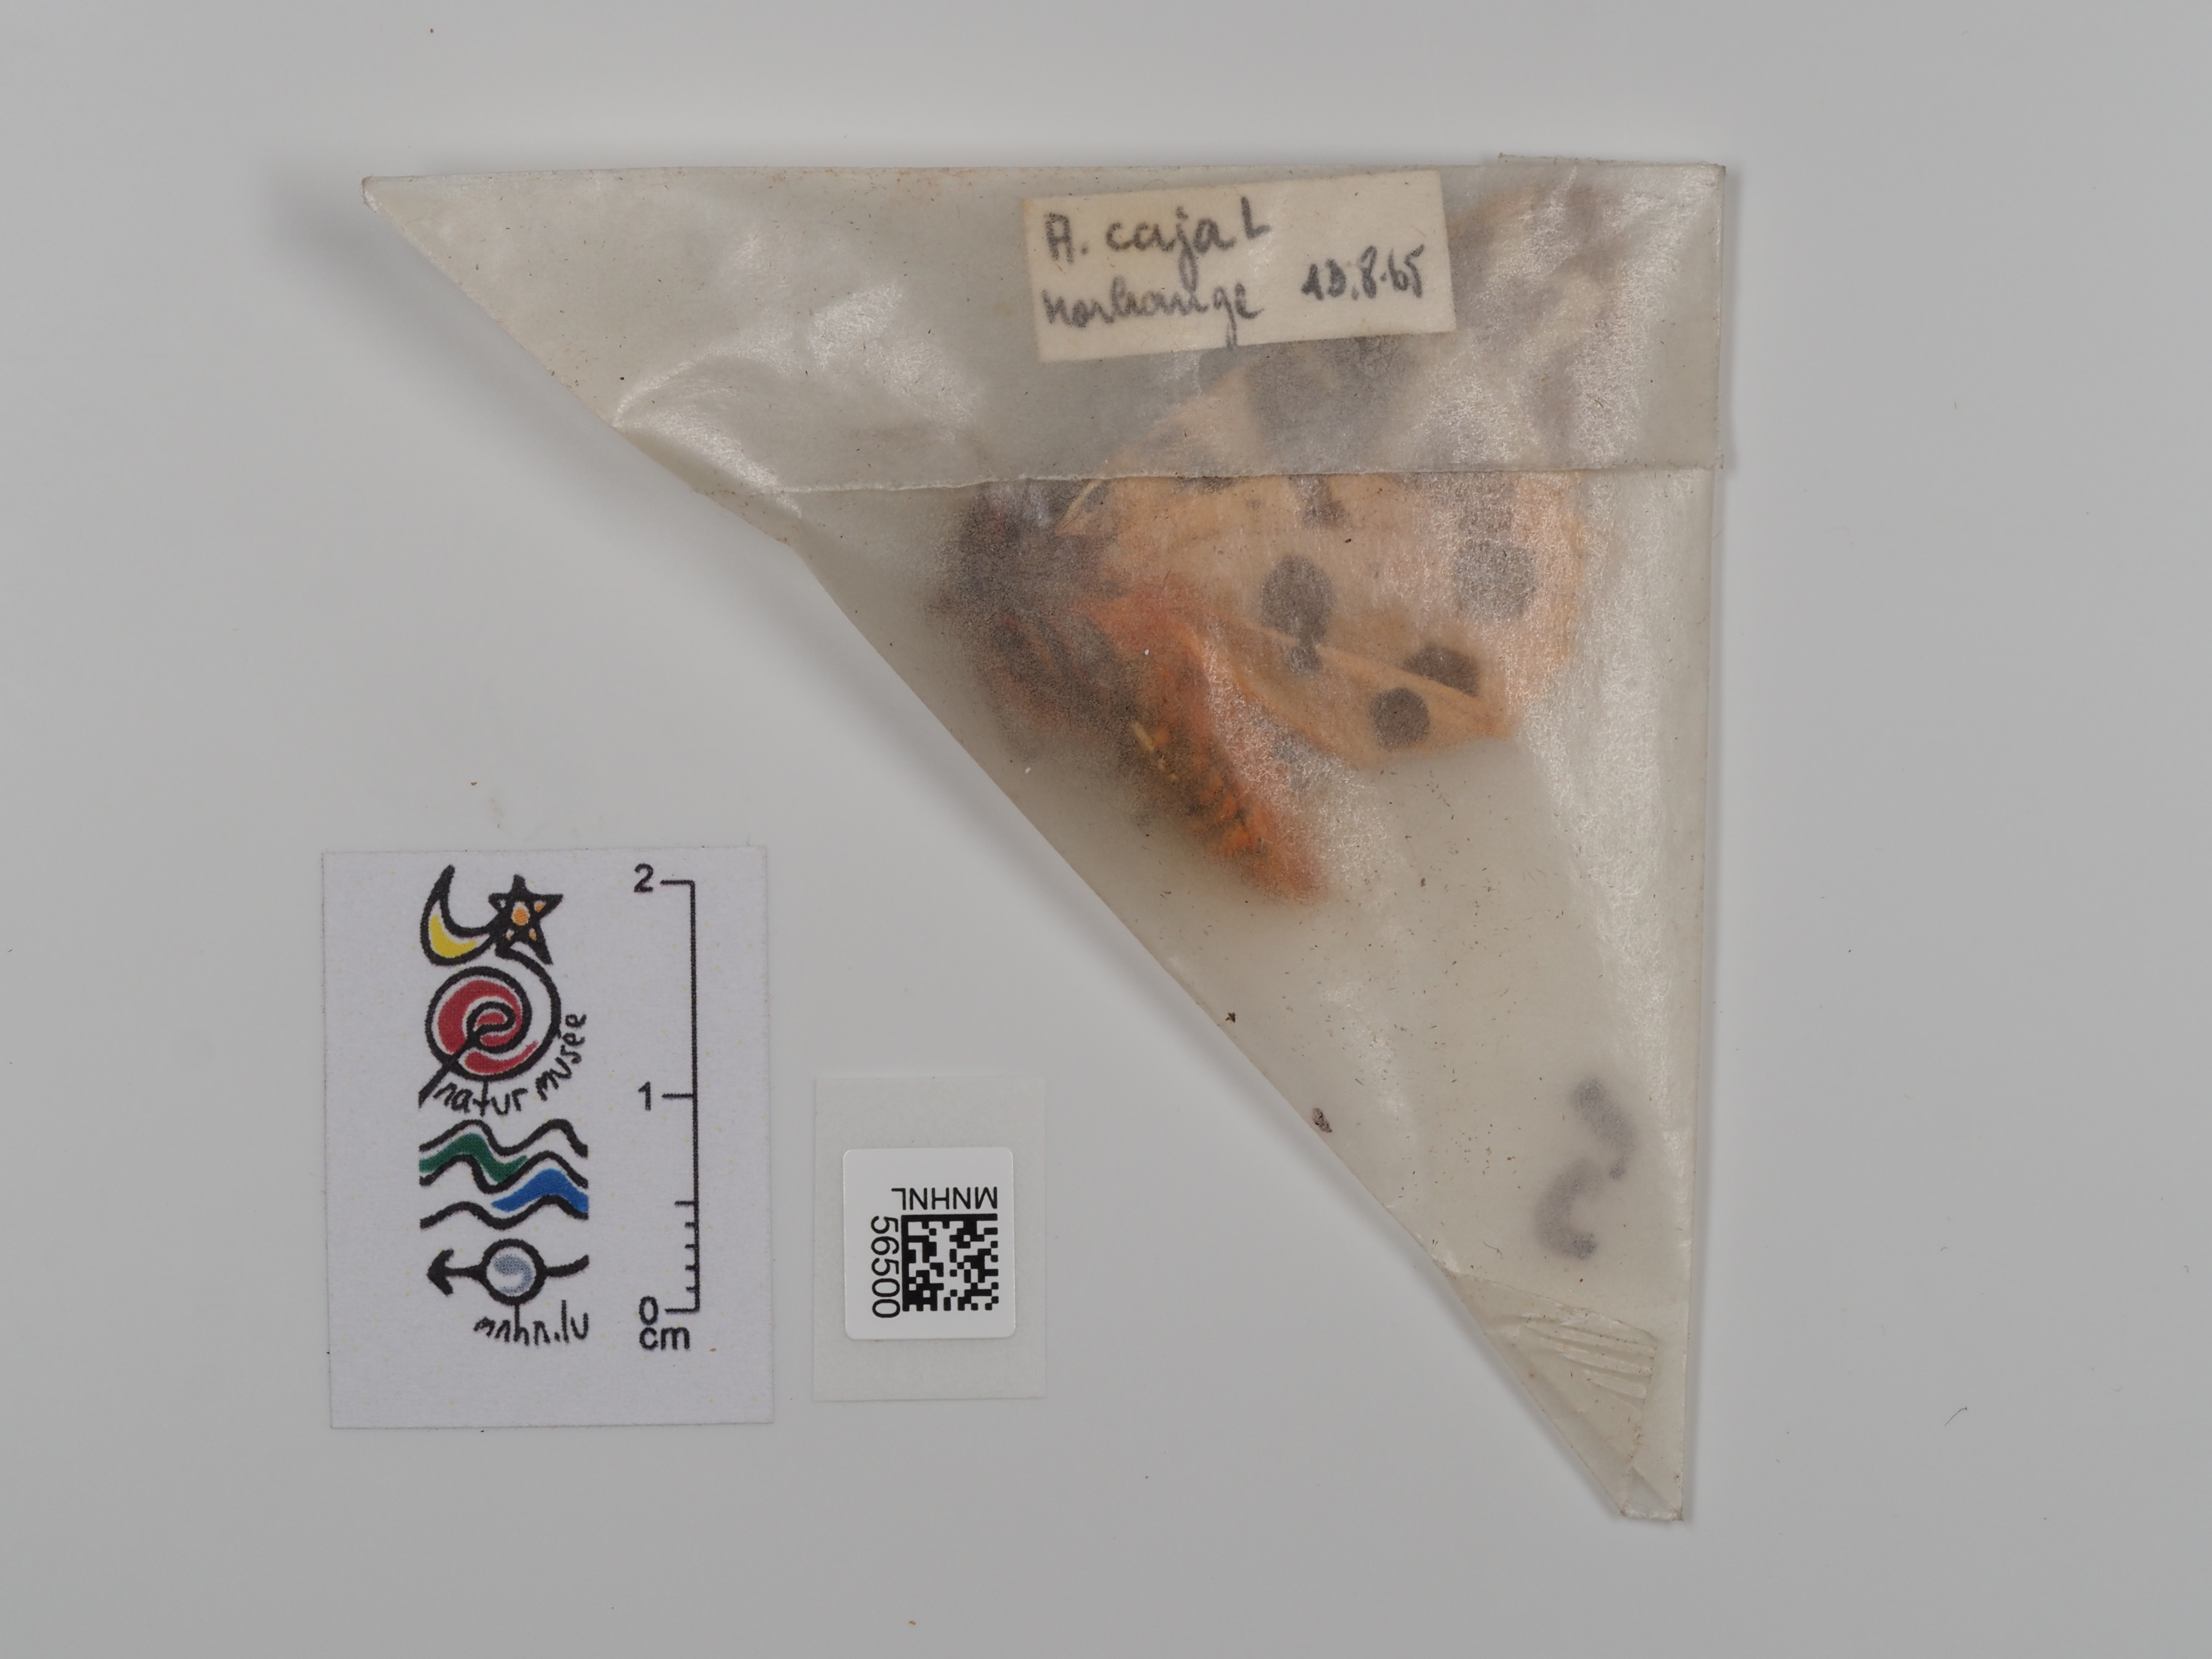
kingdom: Animalia
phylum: Arthropoda
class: Insecta
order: Lepidoptera
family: Erebidae
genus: Arctia
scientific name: Arctia caja
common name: Garden tiger
